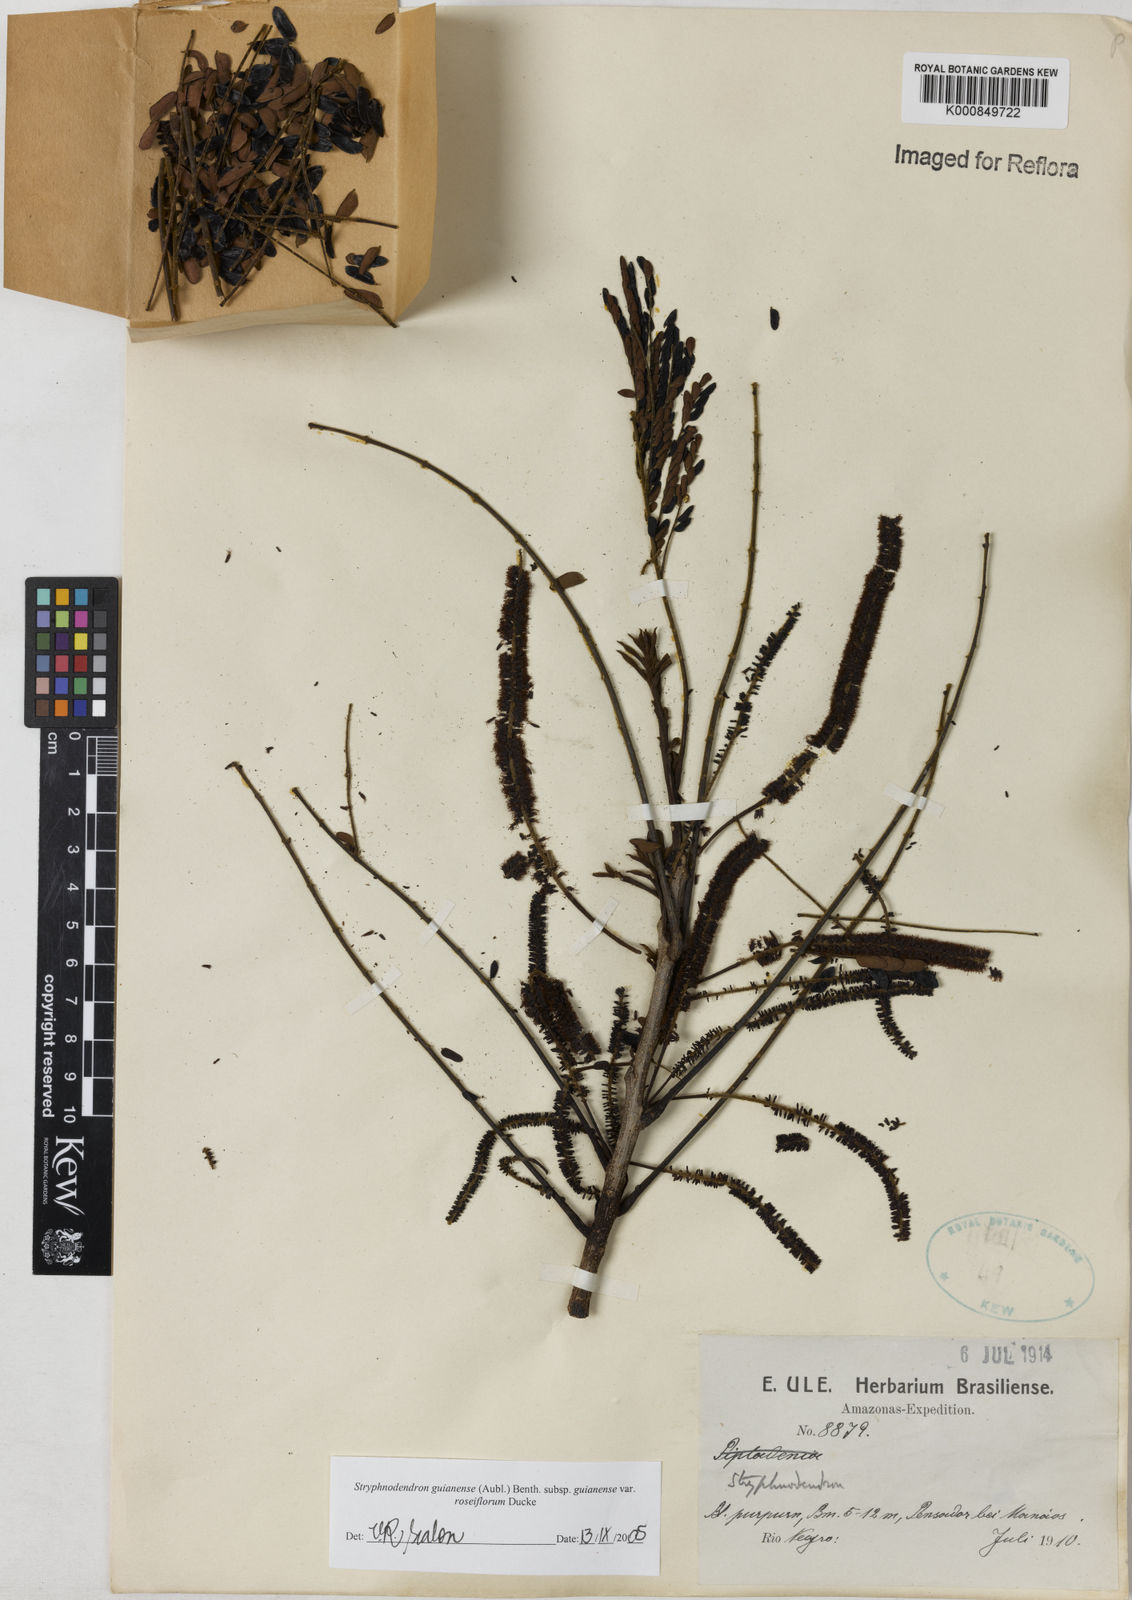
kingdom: Plantae
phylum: Tracheophyta
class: Magnoliopsida
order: Fabales
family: Fabaceae
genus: Stryphnodendron
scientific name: Stryphnodendron guianense
